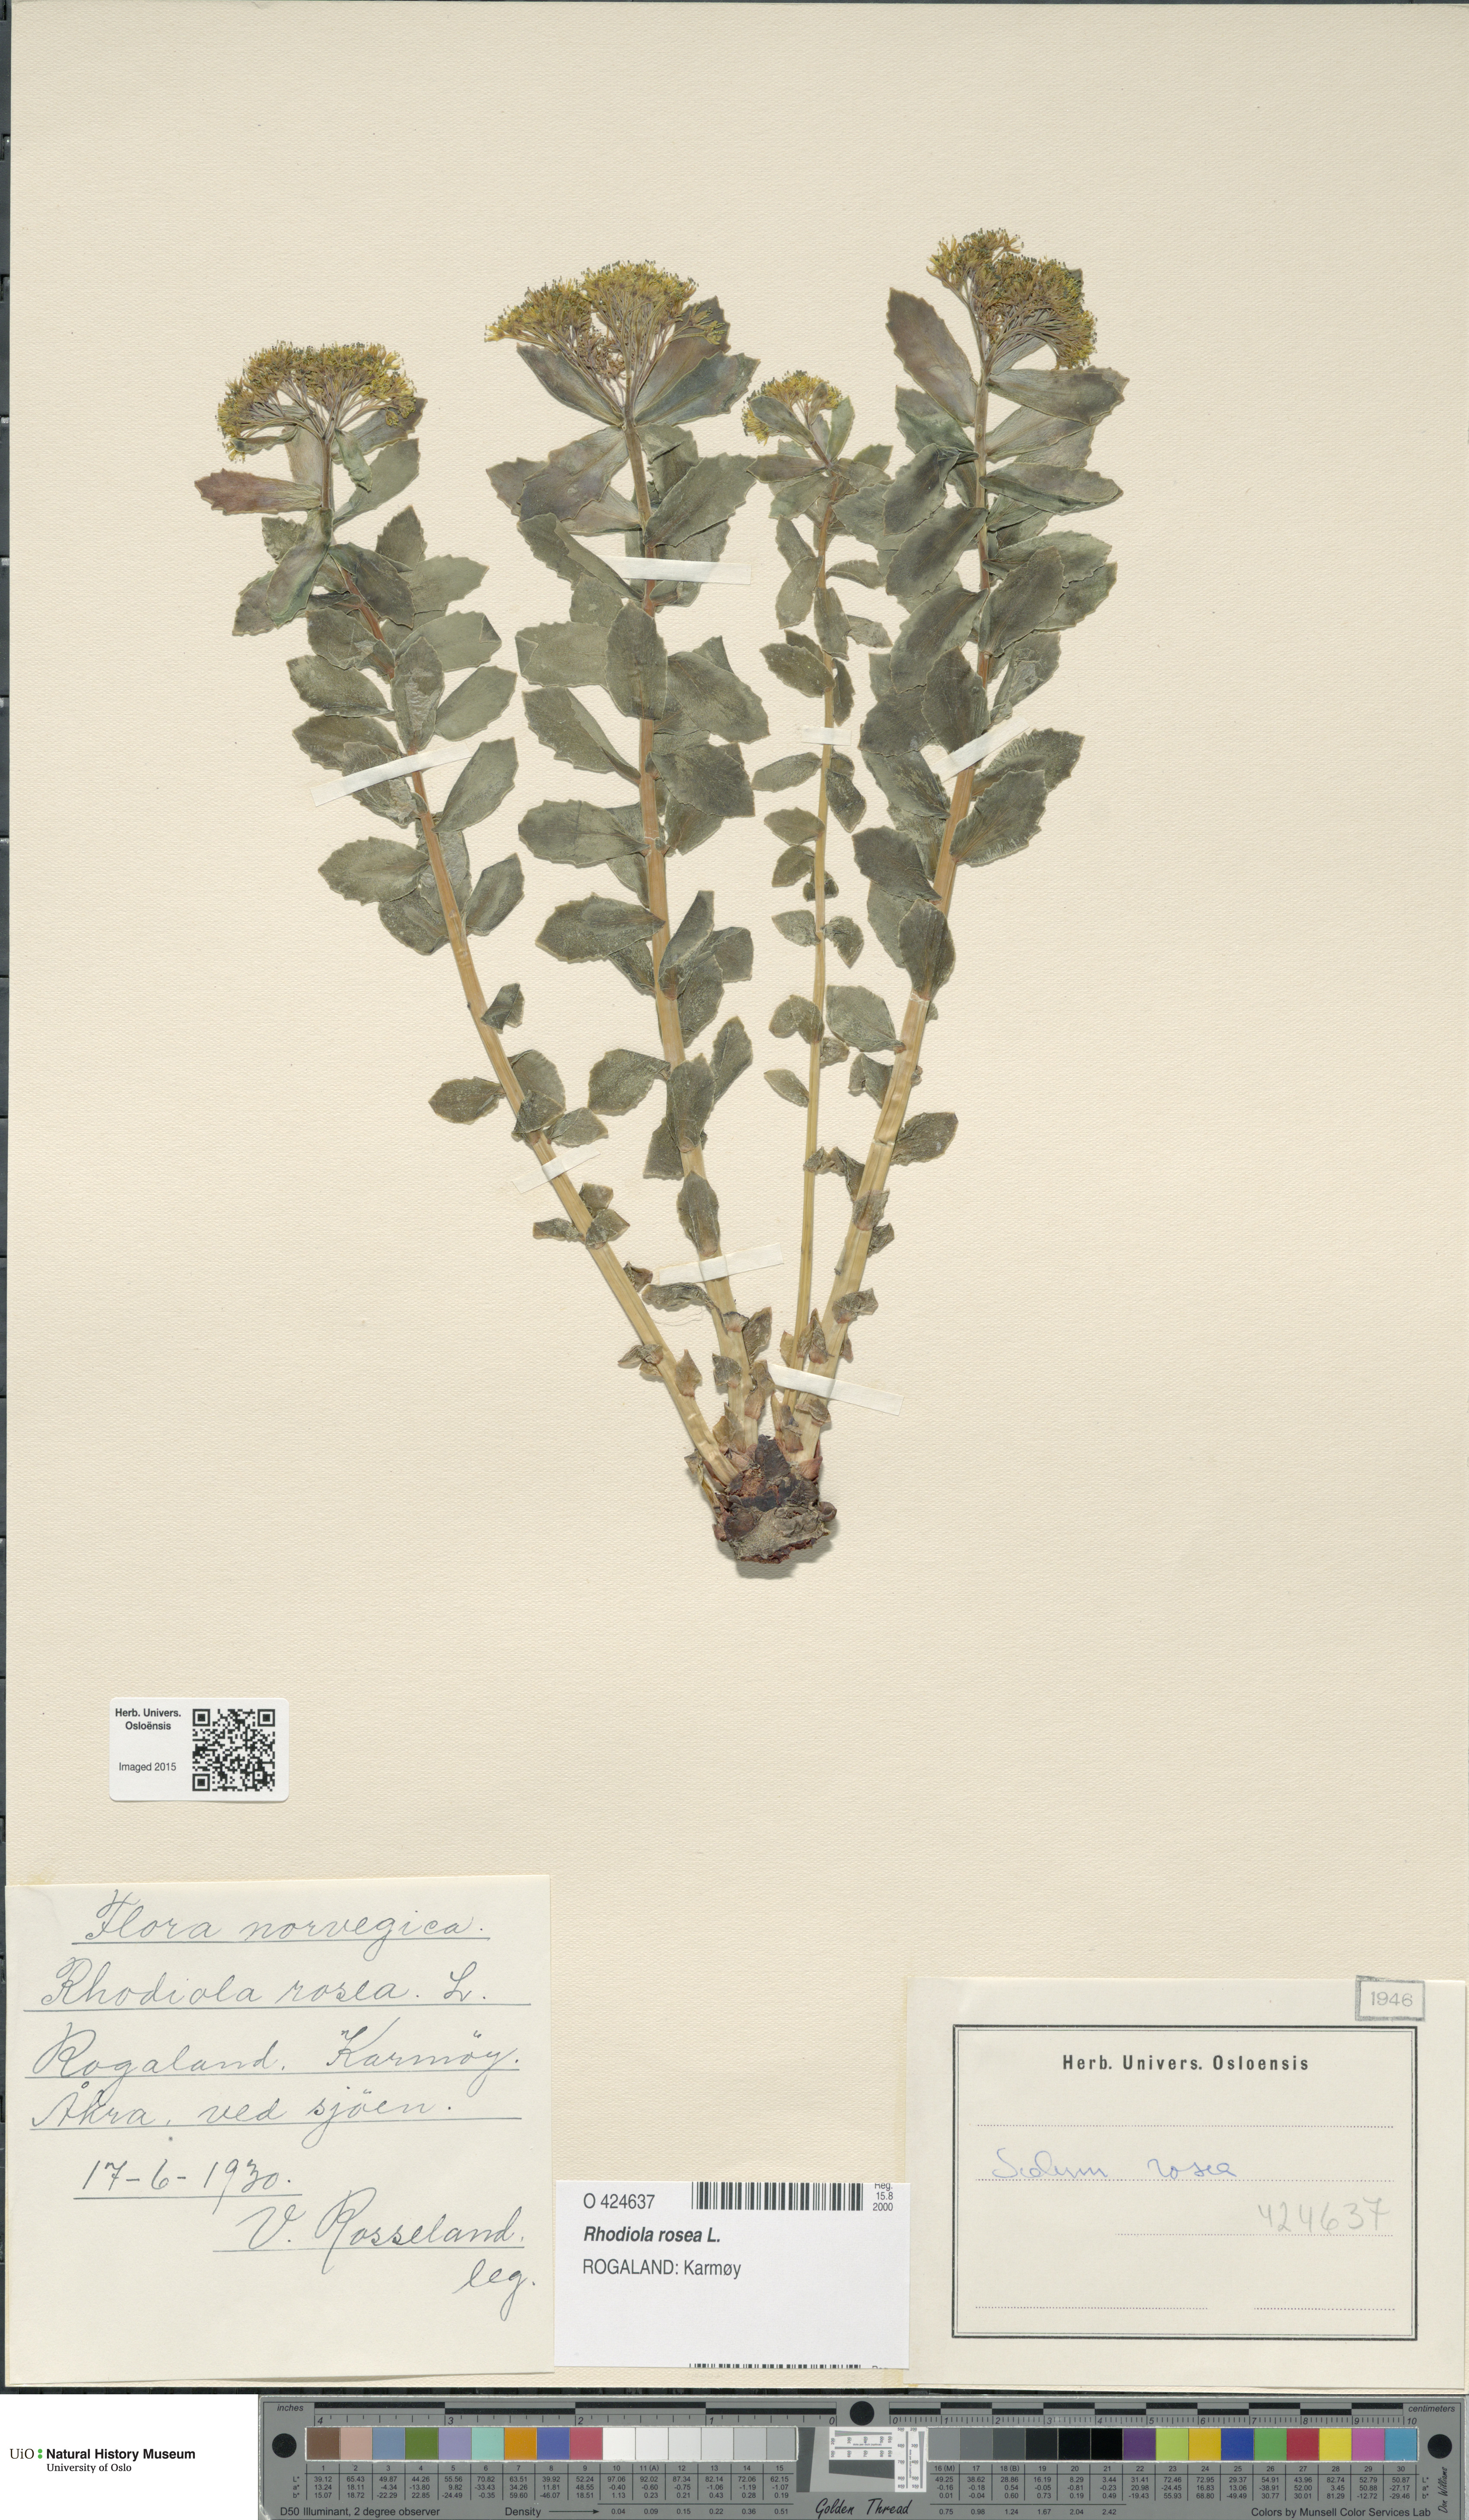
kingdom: Plantae
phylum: Tracheophyta
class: Magnoliopsida
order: Saxifragales
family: Crassulaceae
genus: Rhodiola
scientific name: Rhodiola rosea
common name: Roseroot
